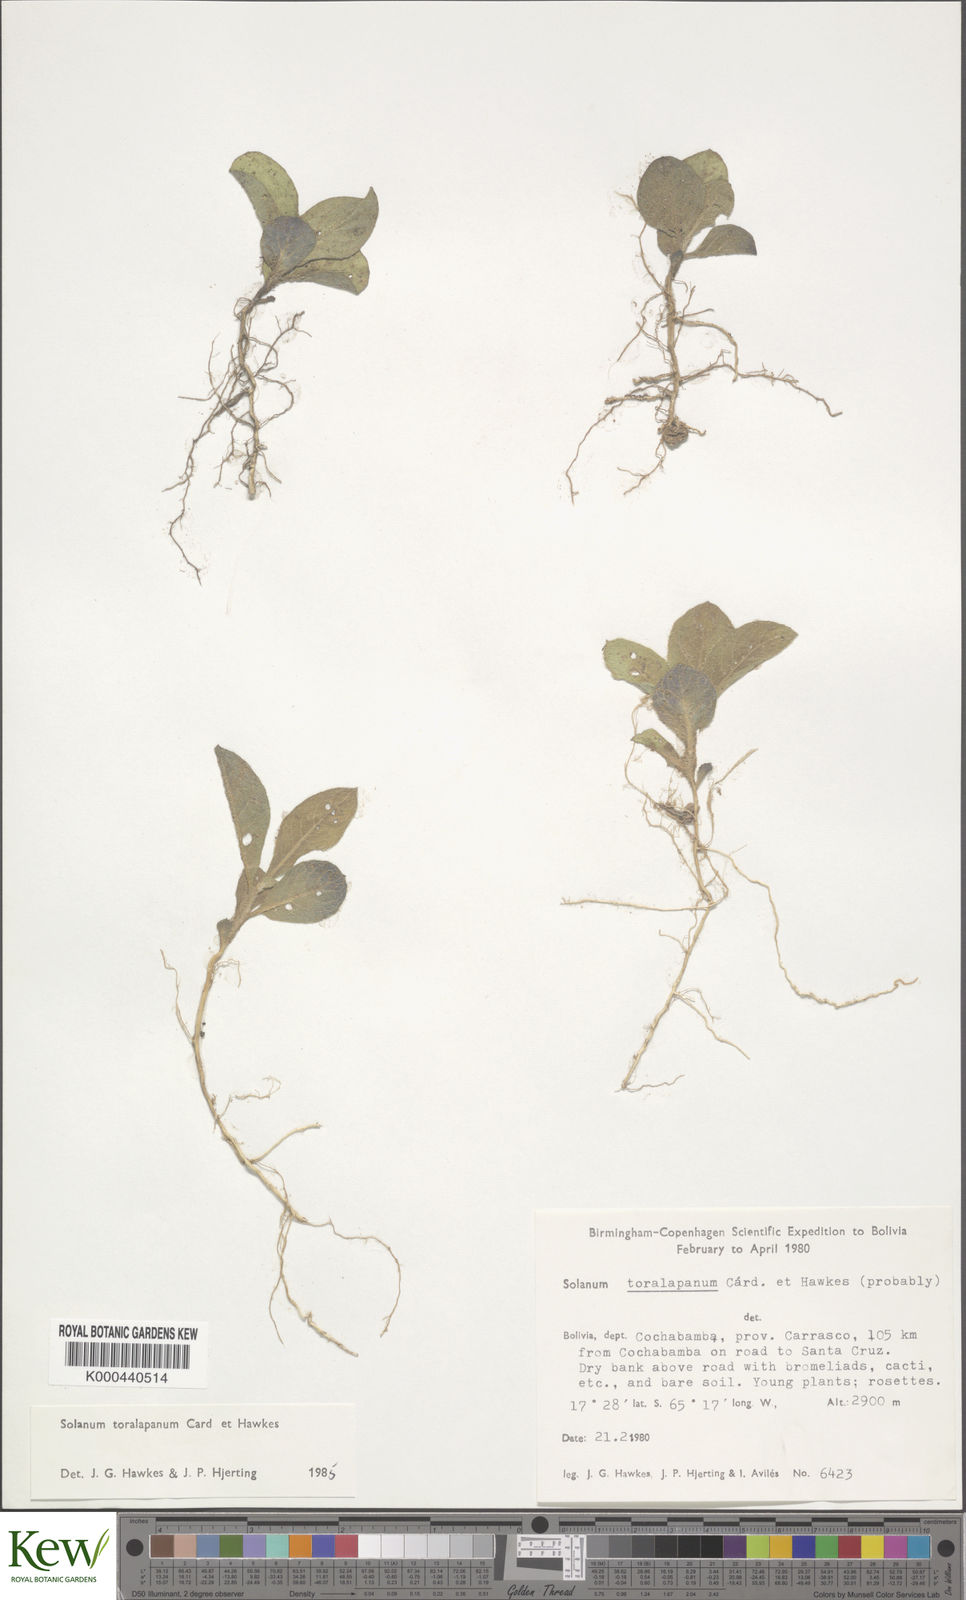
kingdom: Plantae
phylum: Tracheophyta
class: Magnoliopsida
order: Solanales
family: Solanaceae
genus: Solanum
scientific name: Solanum boliviense
